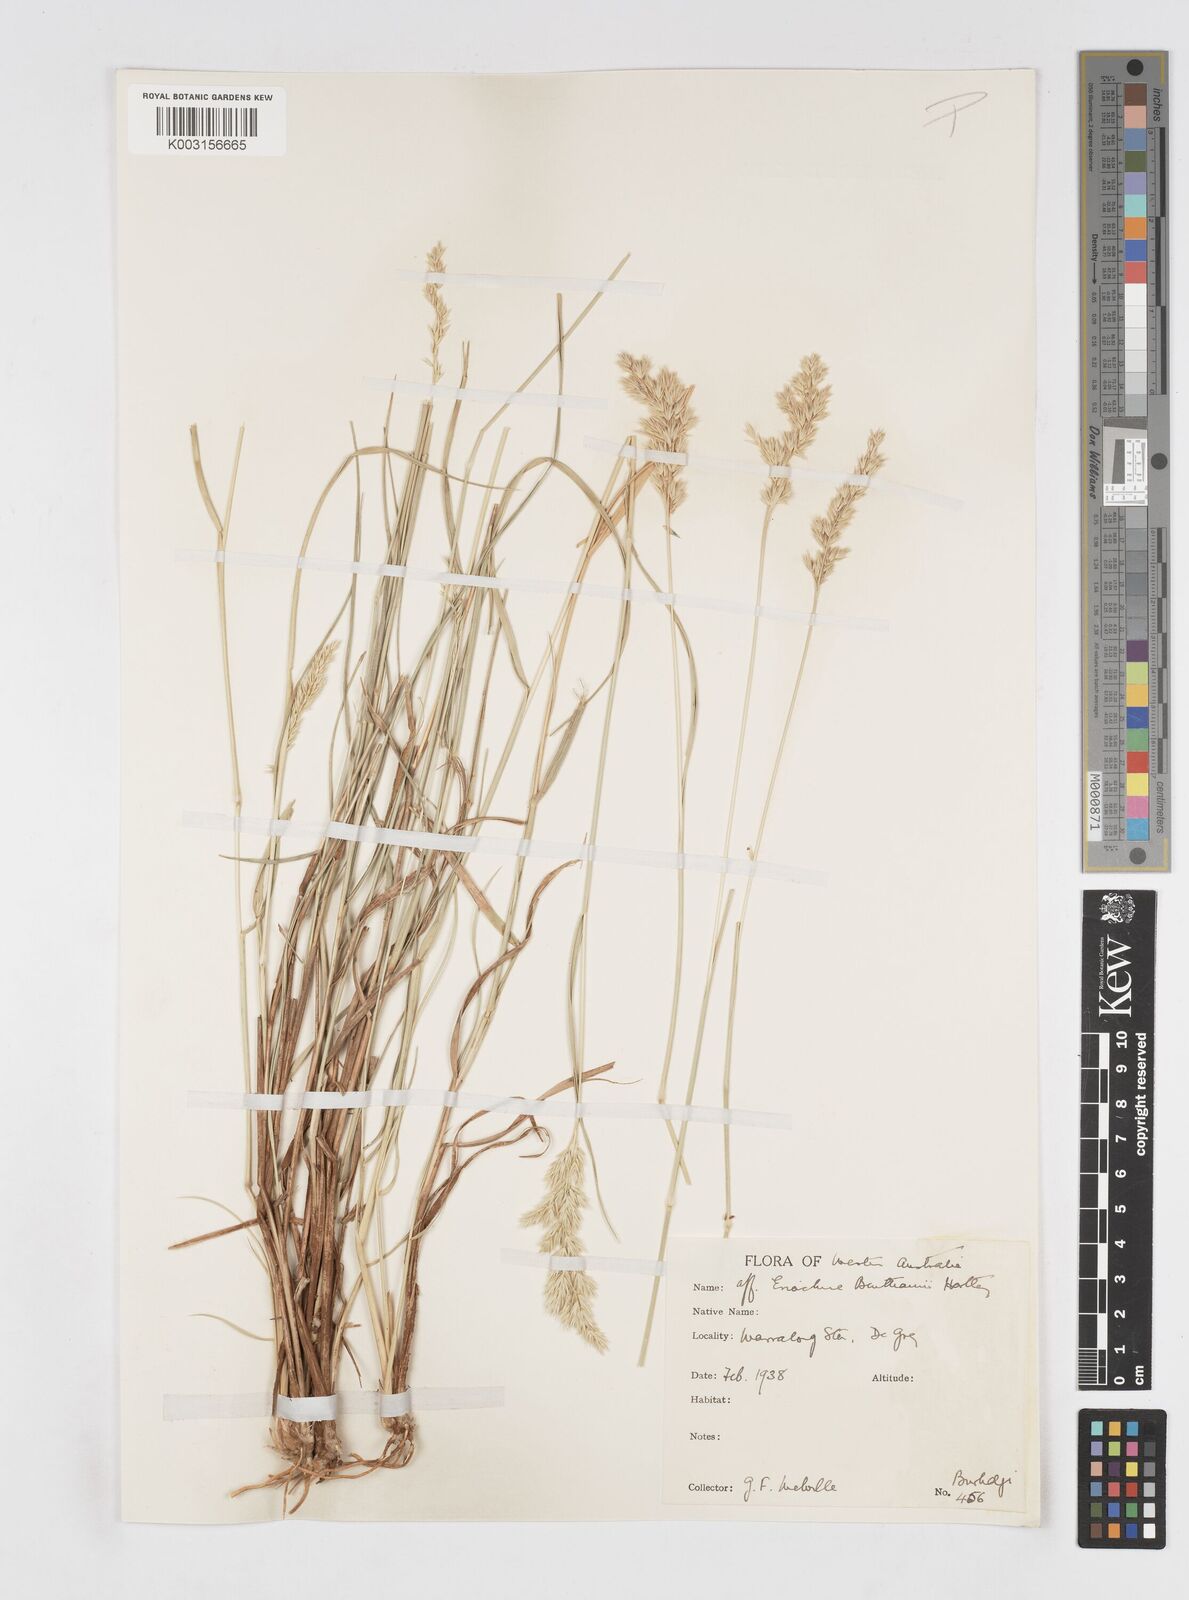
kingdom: Plantae
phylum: Tracheophyta
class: Liliopsida
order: Poales
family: Poaceae
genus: Eriachne
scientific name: Eriachne benthamii
